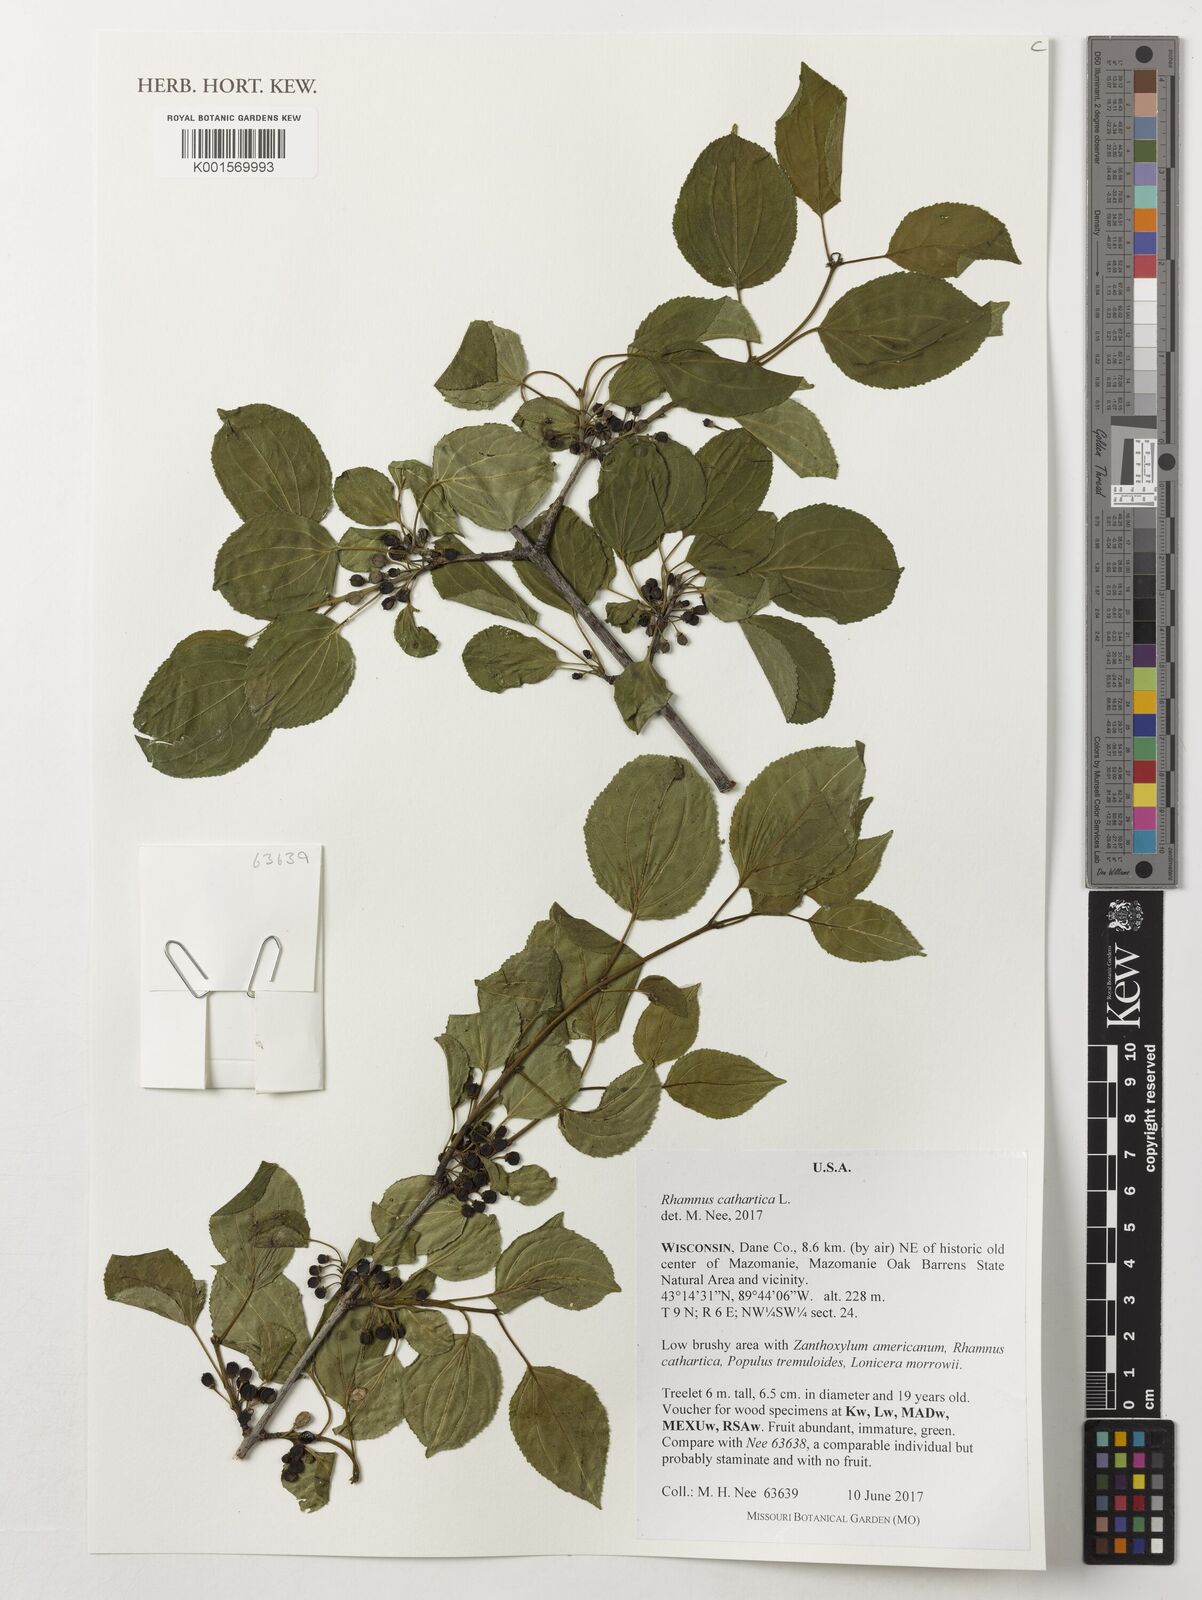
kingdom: Plantae
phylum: Tracheophyta
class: Magnoliopsida
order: Rosales
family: Rhamnaceae
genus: Rhamnus
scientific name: Rhamnus cathartica
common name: Common buckthorn
